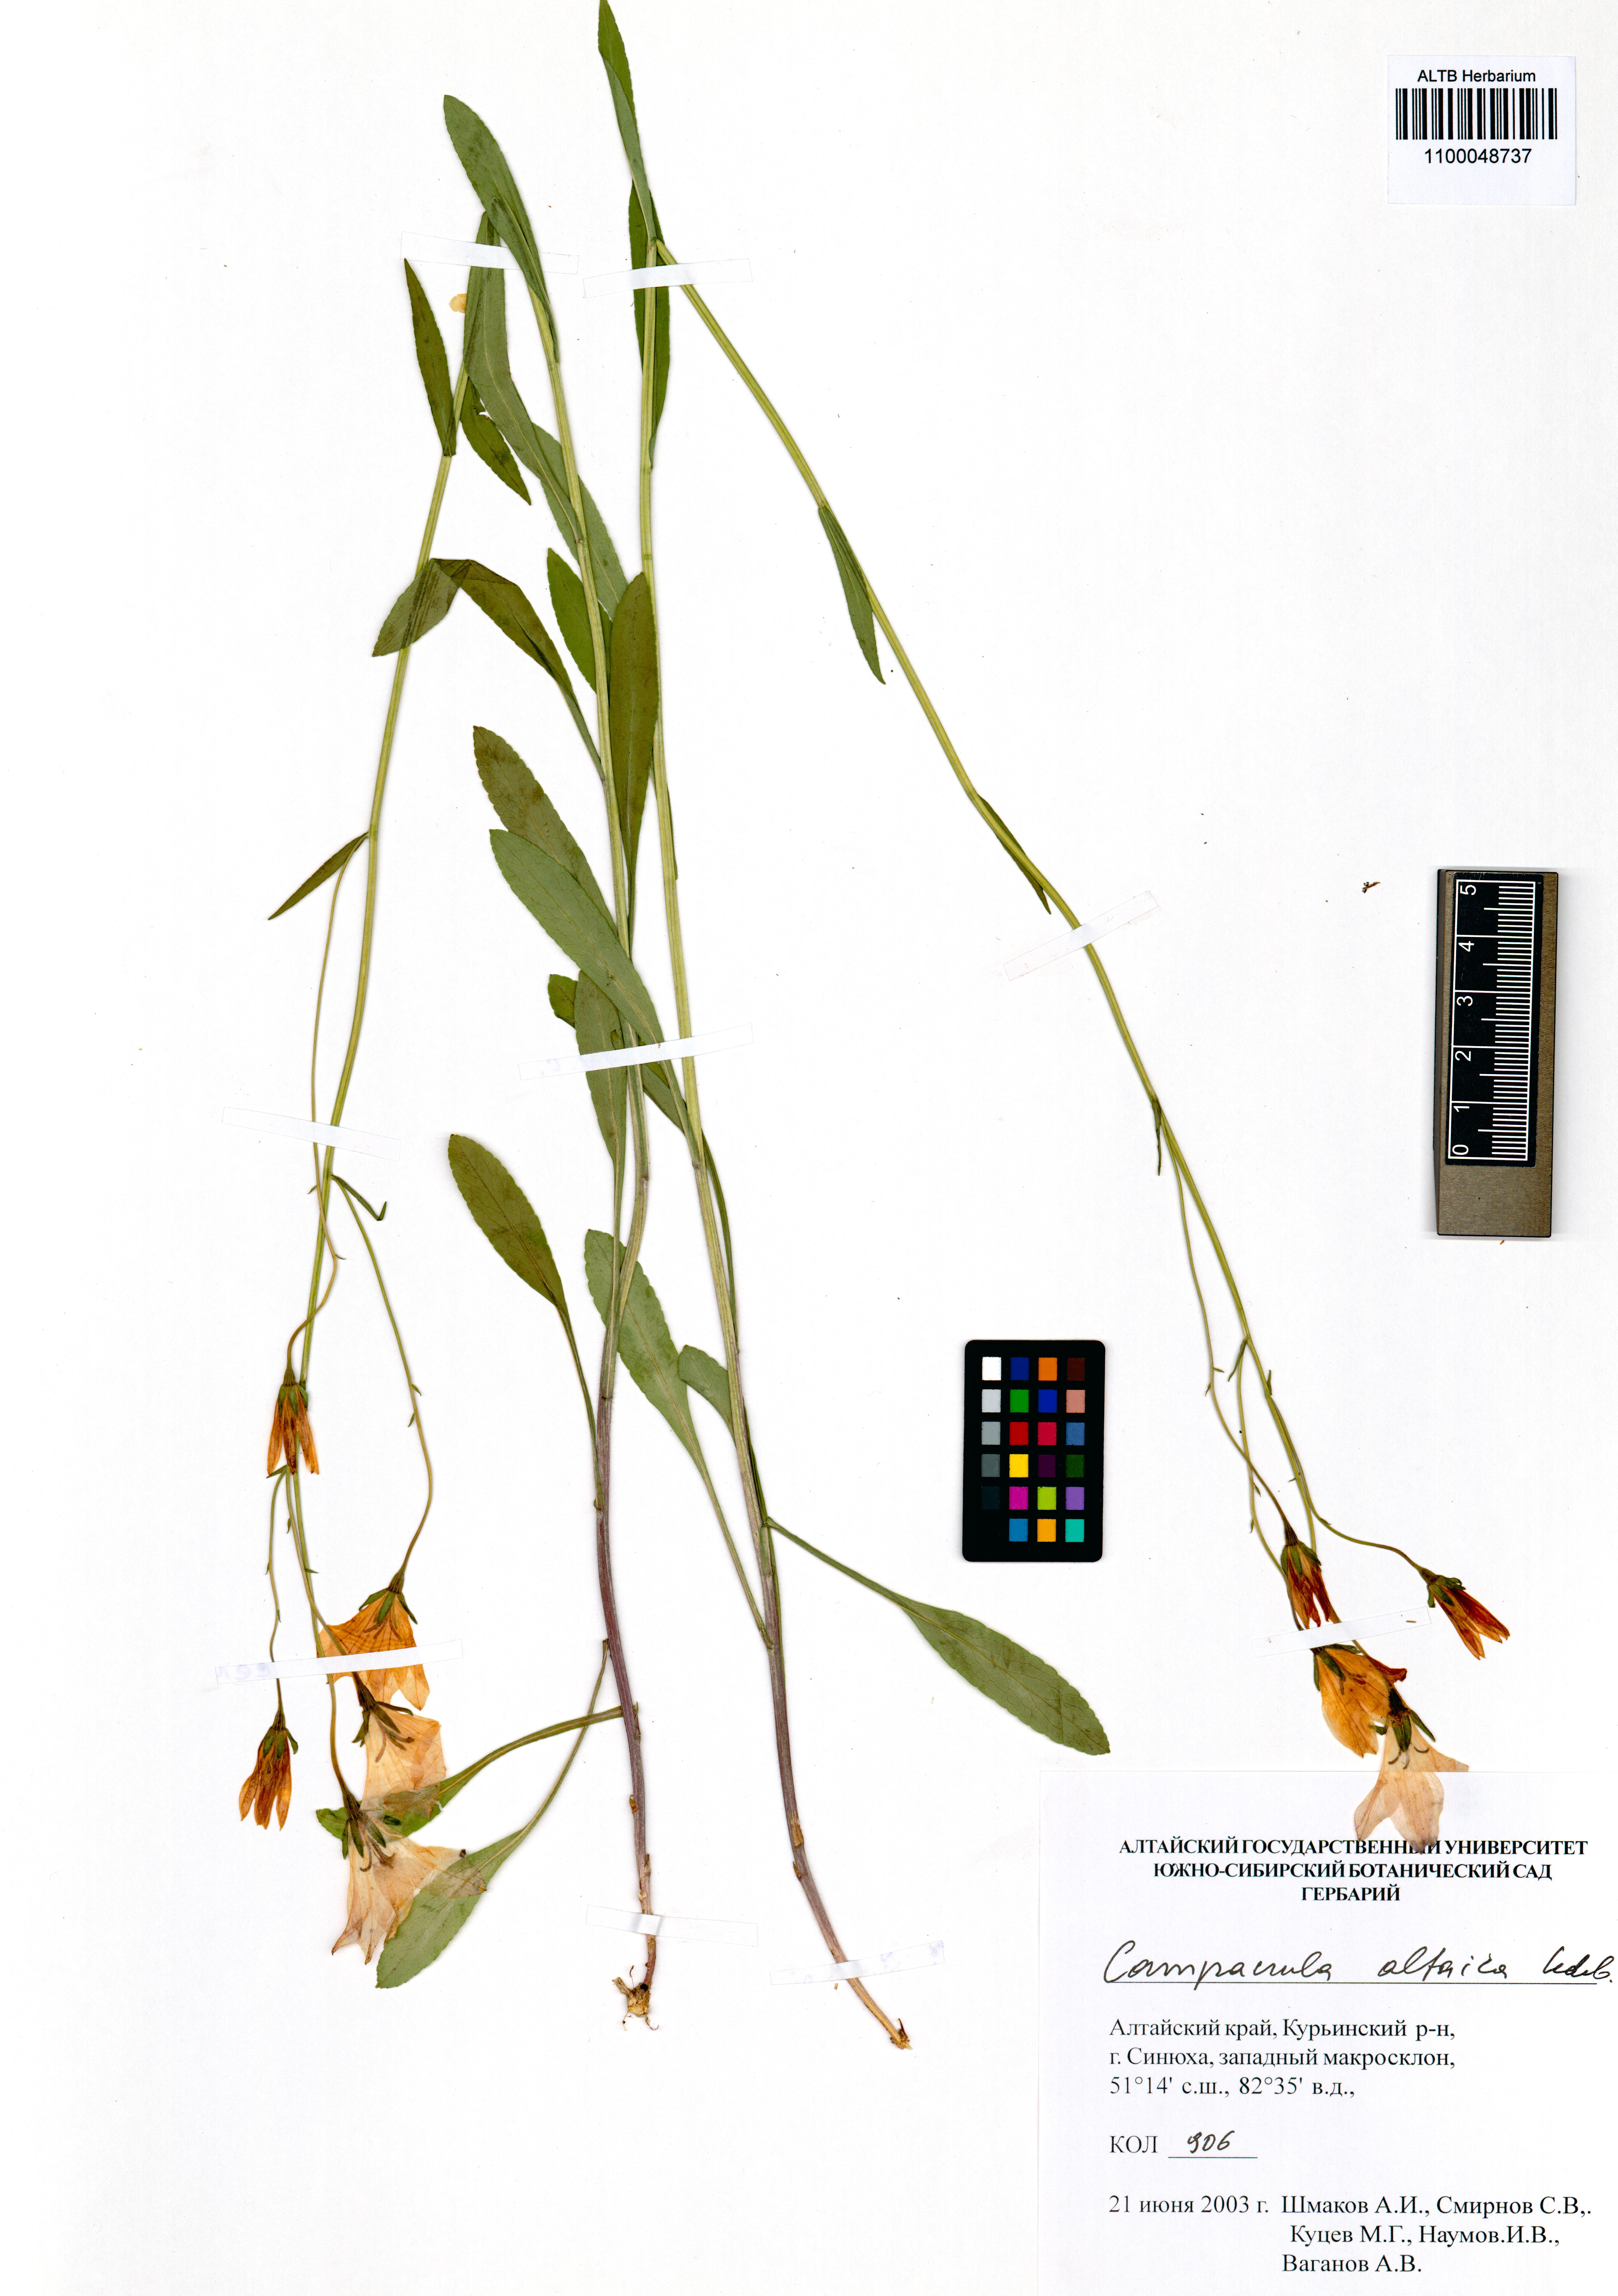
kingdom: Plantae
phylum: Tracheophyta
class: Magnoliopsida
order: Asterales
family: Campanulaceae
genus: Campanula
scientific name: Campanula stevenii
